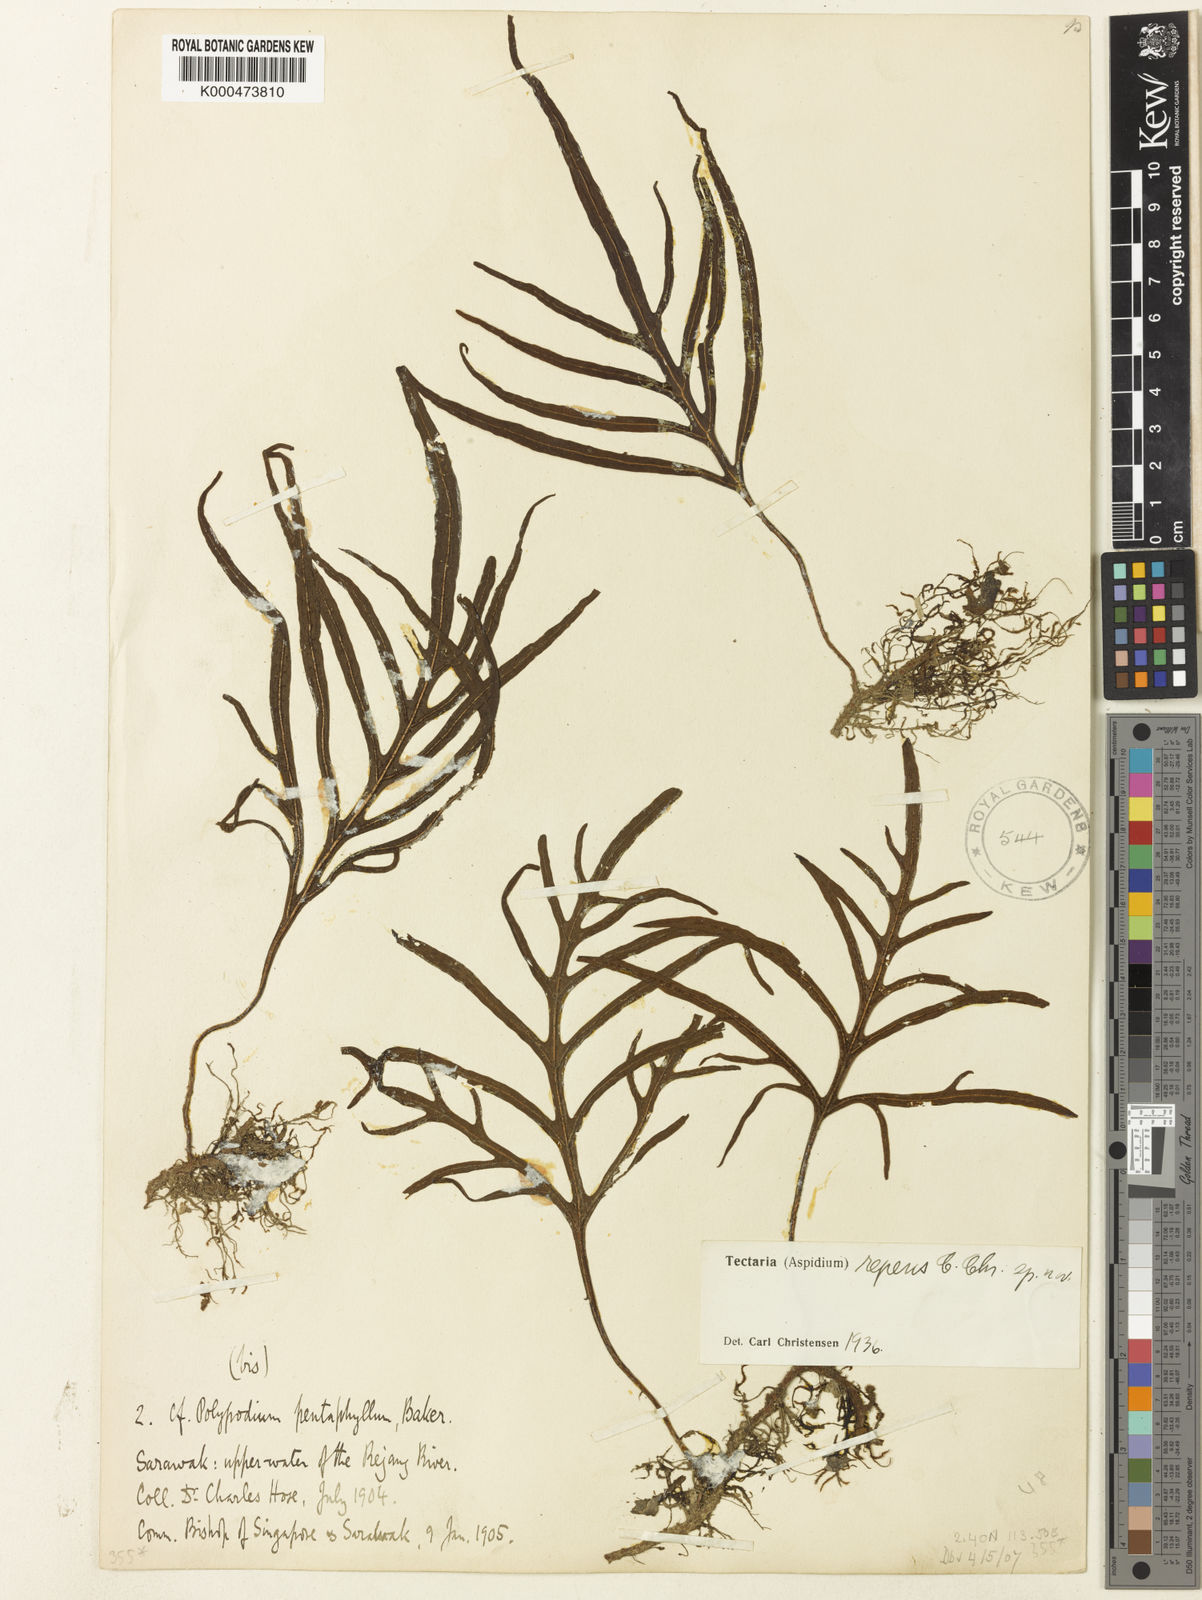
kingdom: Plantae
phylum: Tracheophyta
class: Polypodiopsida
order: Polypodiales
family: Tectariaceae
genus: Tectaria
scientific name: Tectaria repens
